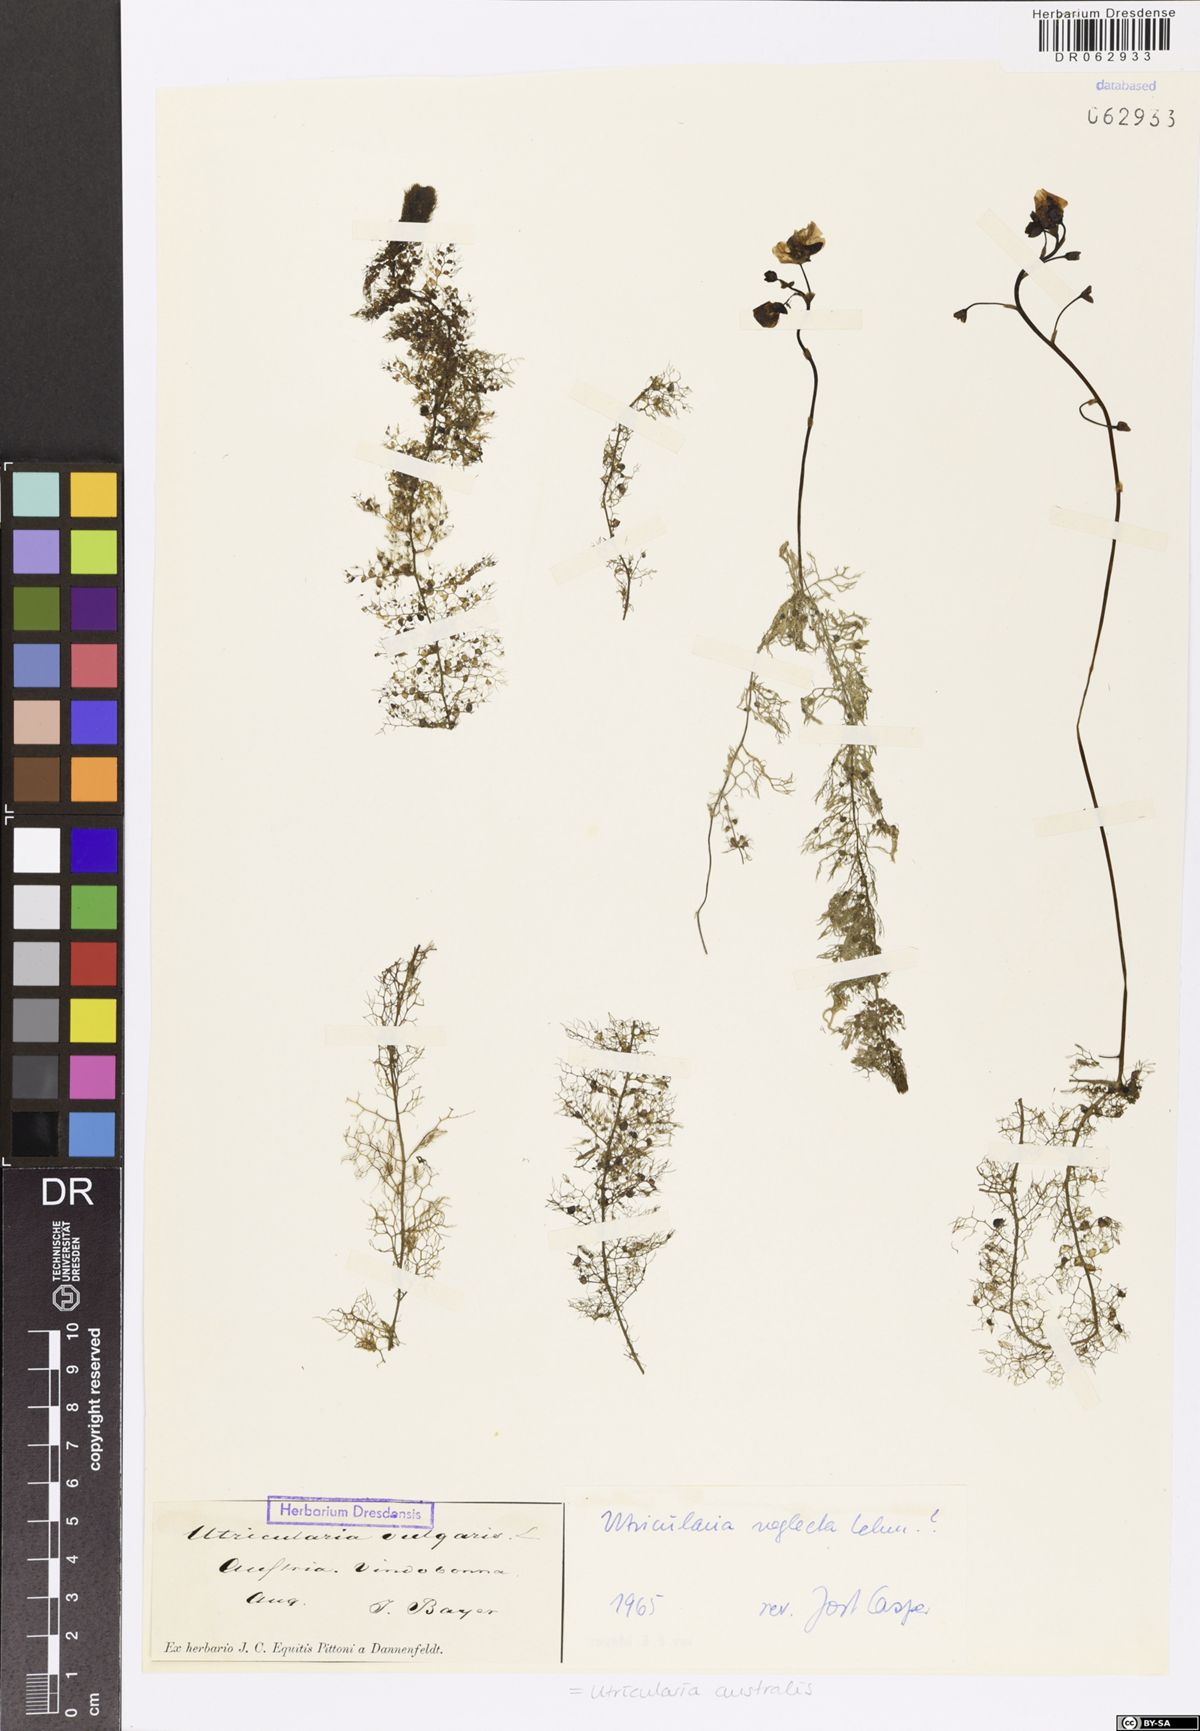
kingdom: Plantae
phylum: Tracheophyta
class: Magnoliopsida
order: Lamiales
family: Lentibulariaceae
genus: Utricularia
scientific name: Utricularia australis
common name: Bladderwort
